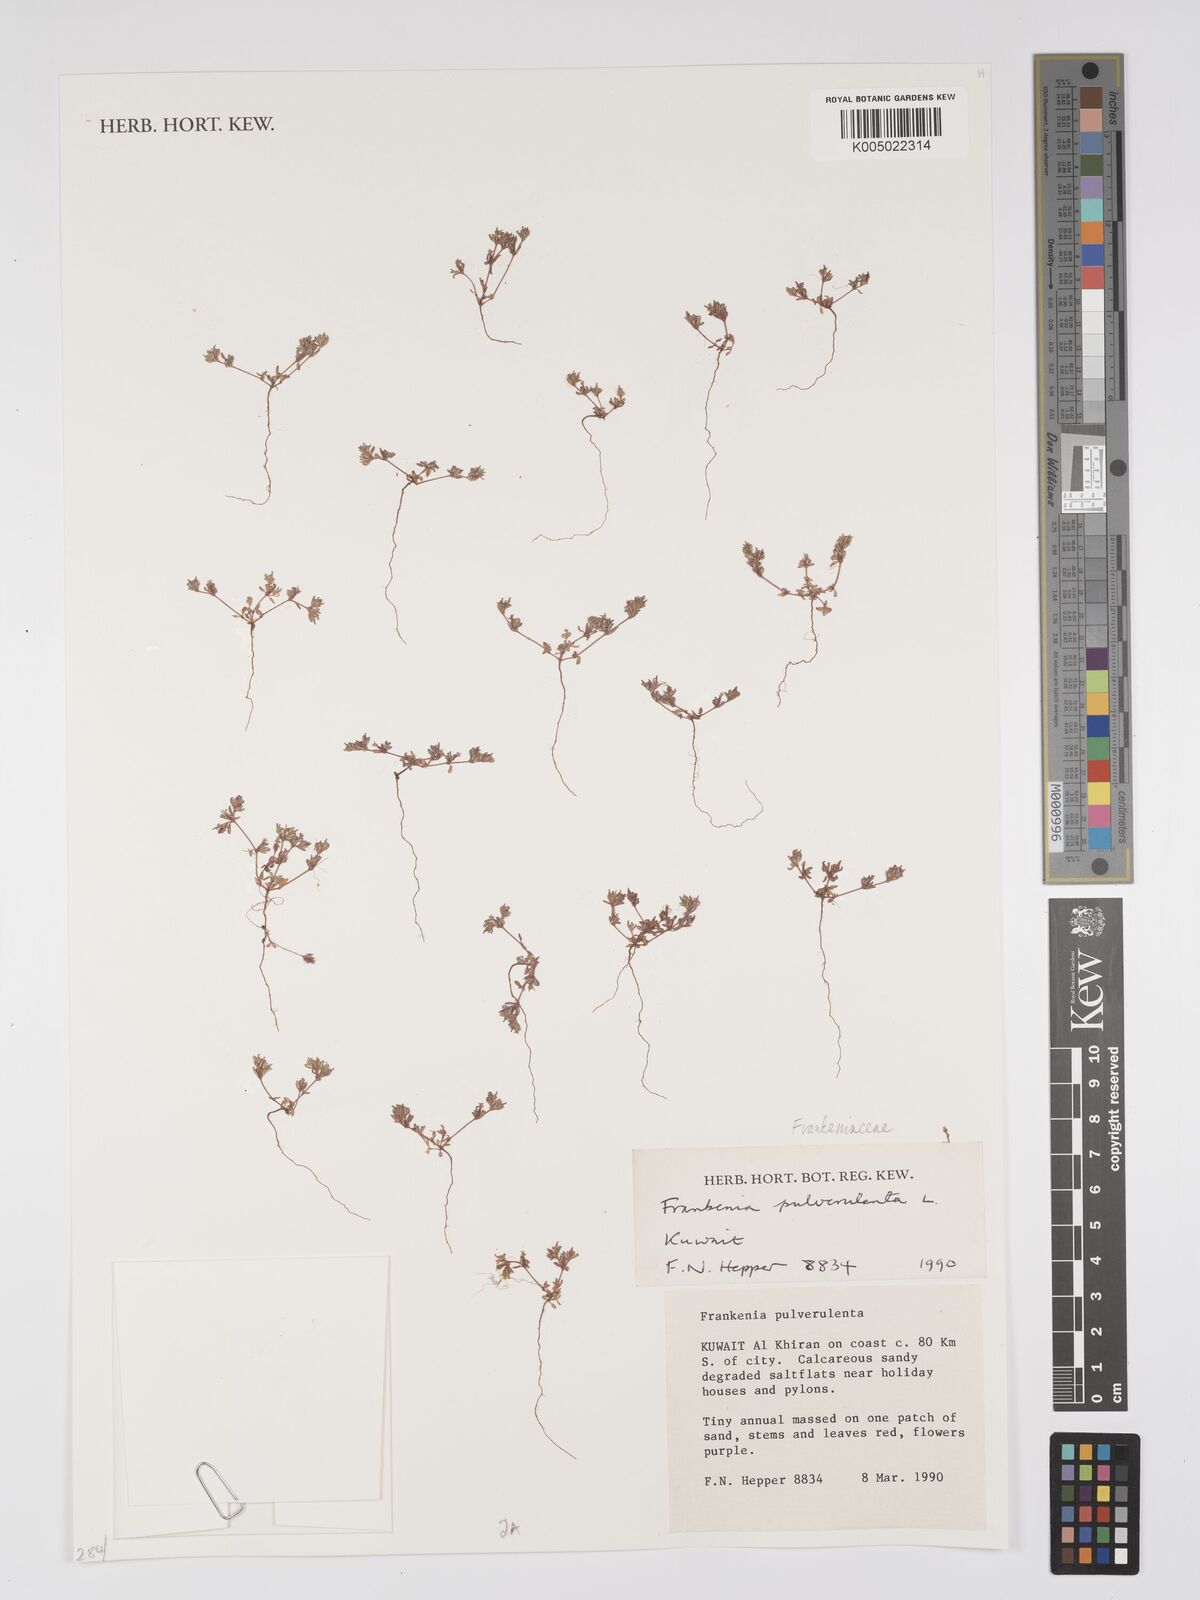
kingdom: Plantae
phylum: Tracheophyta
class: Magnoliopsida
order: Caryophyllales
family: Frankeniaceae
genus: Frankenia
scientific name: Frankenia pulverulenta
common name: European seaheath
